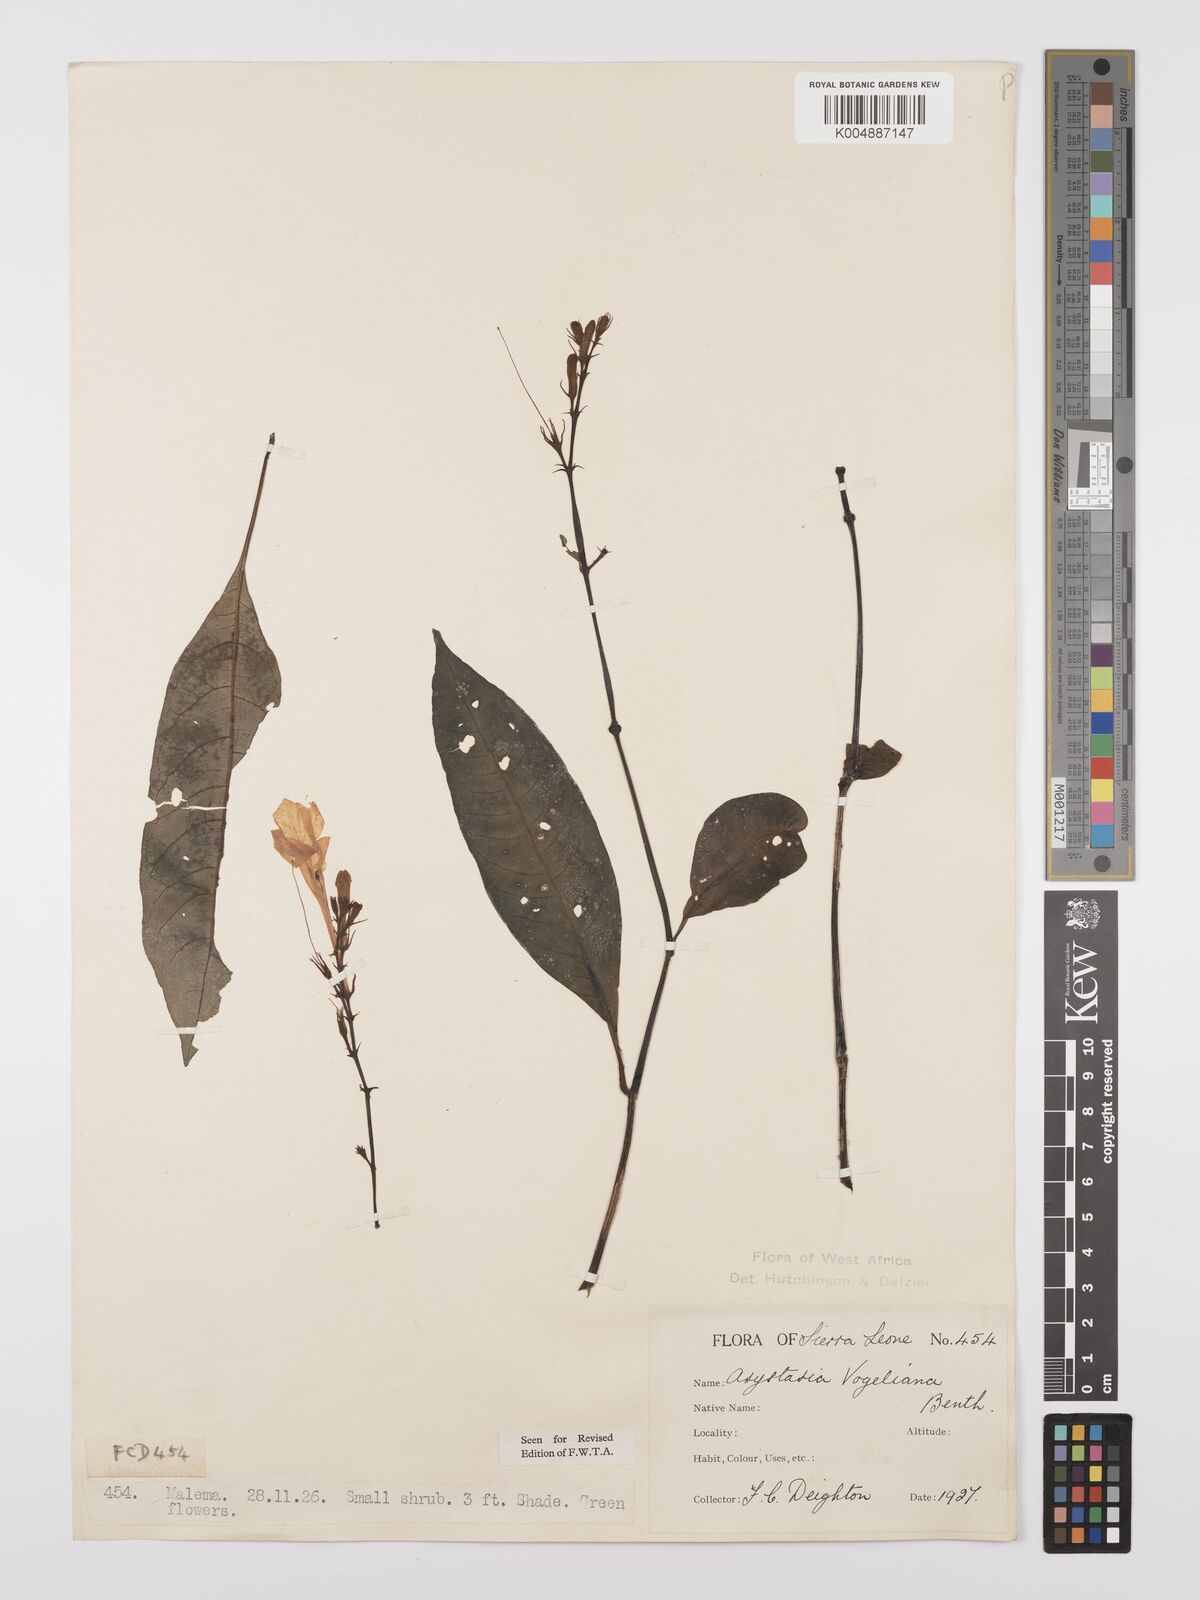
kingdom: Plantae
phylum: Tracheophyta
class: Magnoliopsida
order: Lamiales
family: Acanthaceae
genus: Asystasia
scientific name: Asystasia vogeliana
